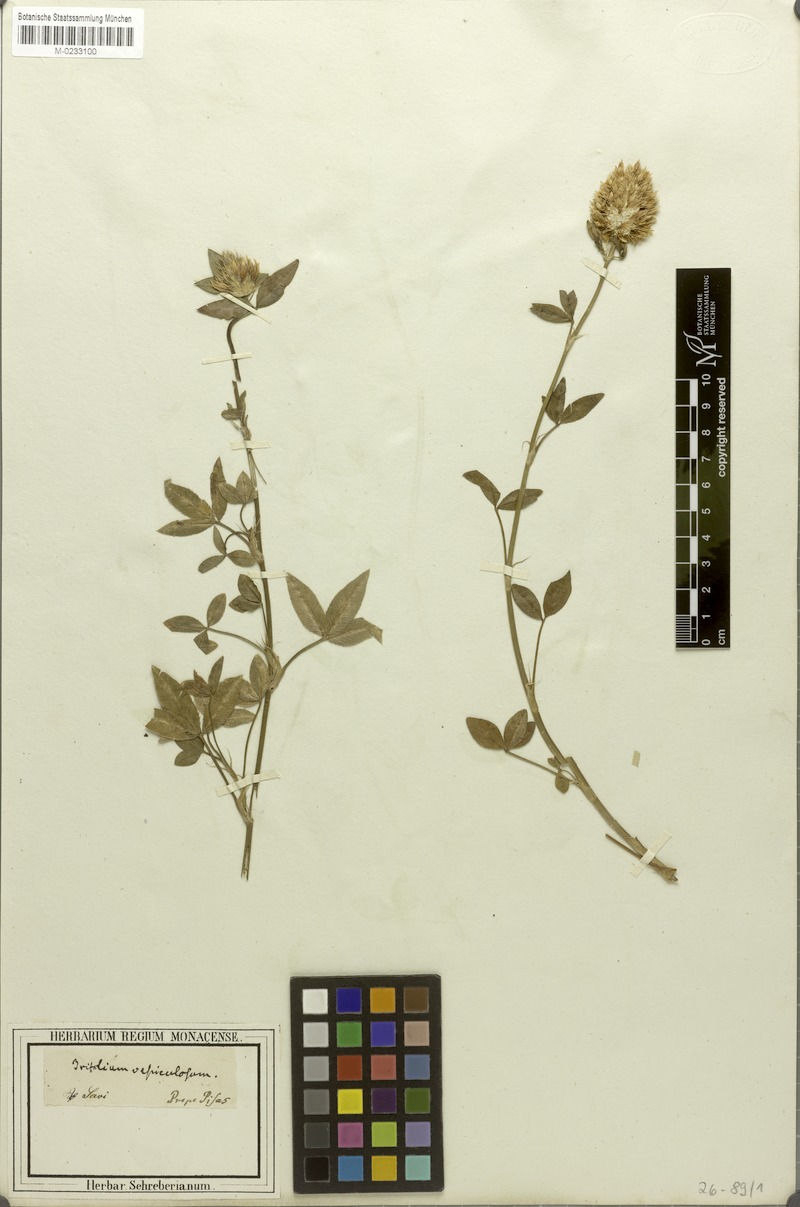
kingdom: Plantae
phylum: Tracheophyta
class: Magnoliopsida
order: Fabales
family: Fabaceae
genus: Trifolium
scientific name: Trifolium vesiculosum
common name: Arrowleaf clover
